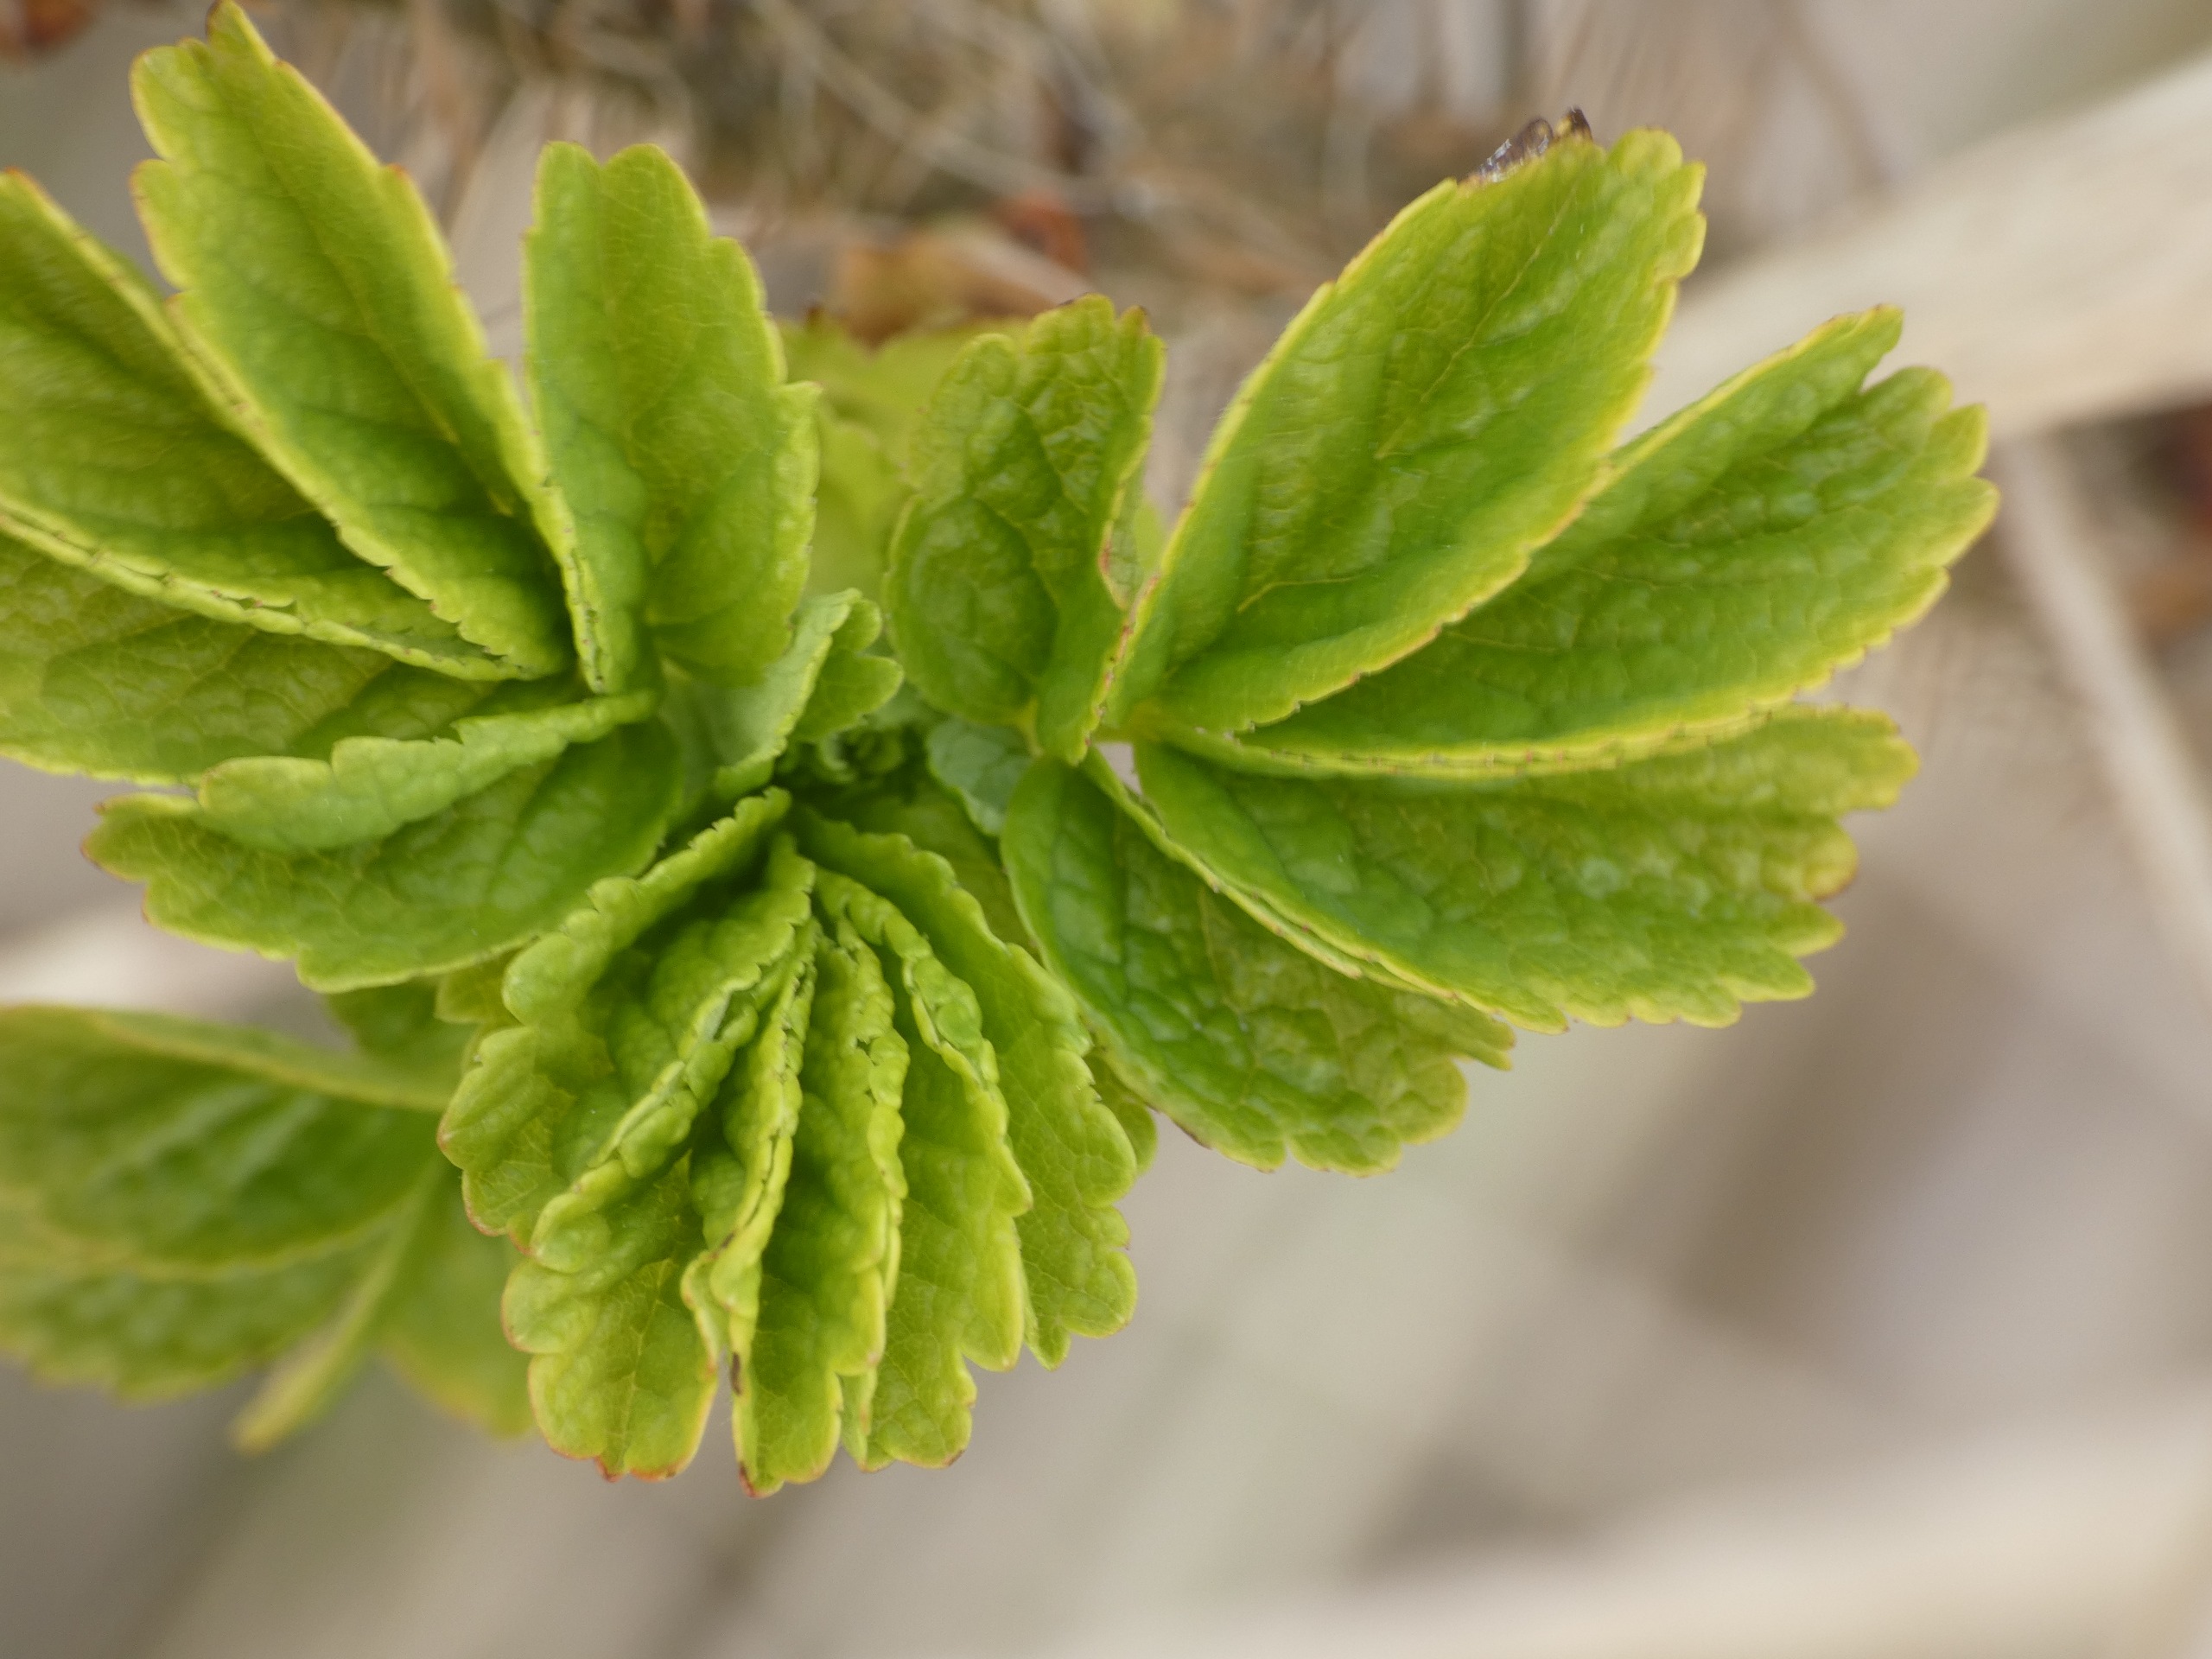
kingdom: Plantae
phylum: Tracheophyta
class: Magnoliopsida
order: Rosales
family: Rosaceae
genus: Rosa
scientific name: Rosa rugosa
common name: Rynket rose
